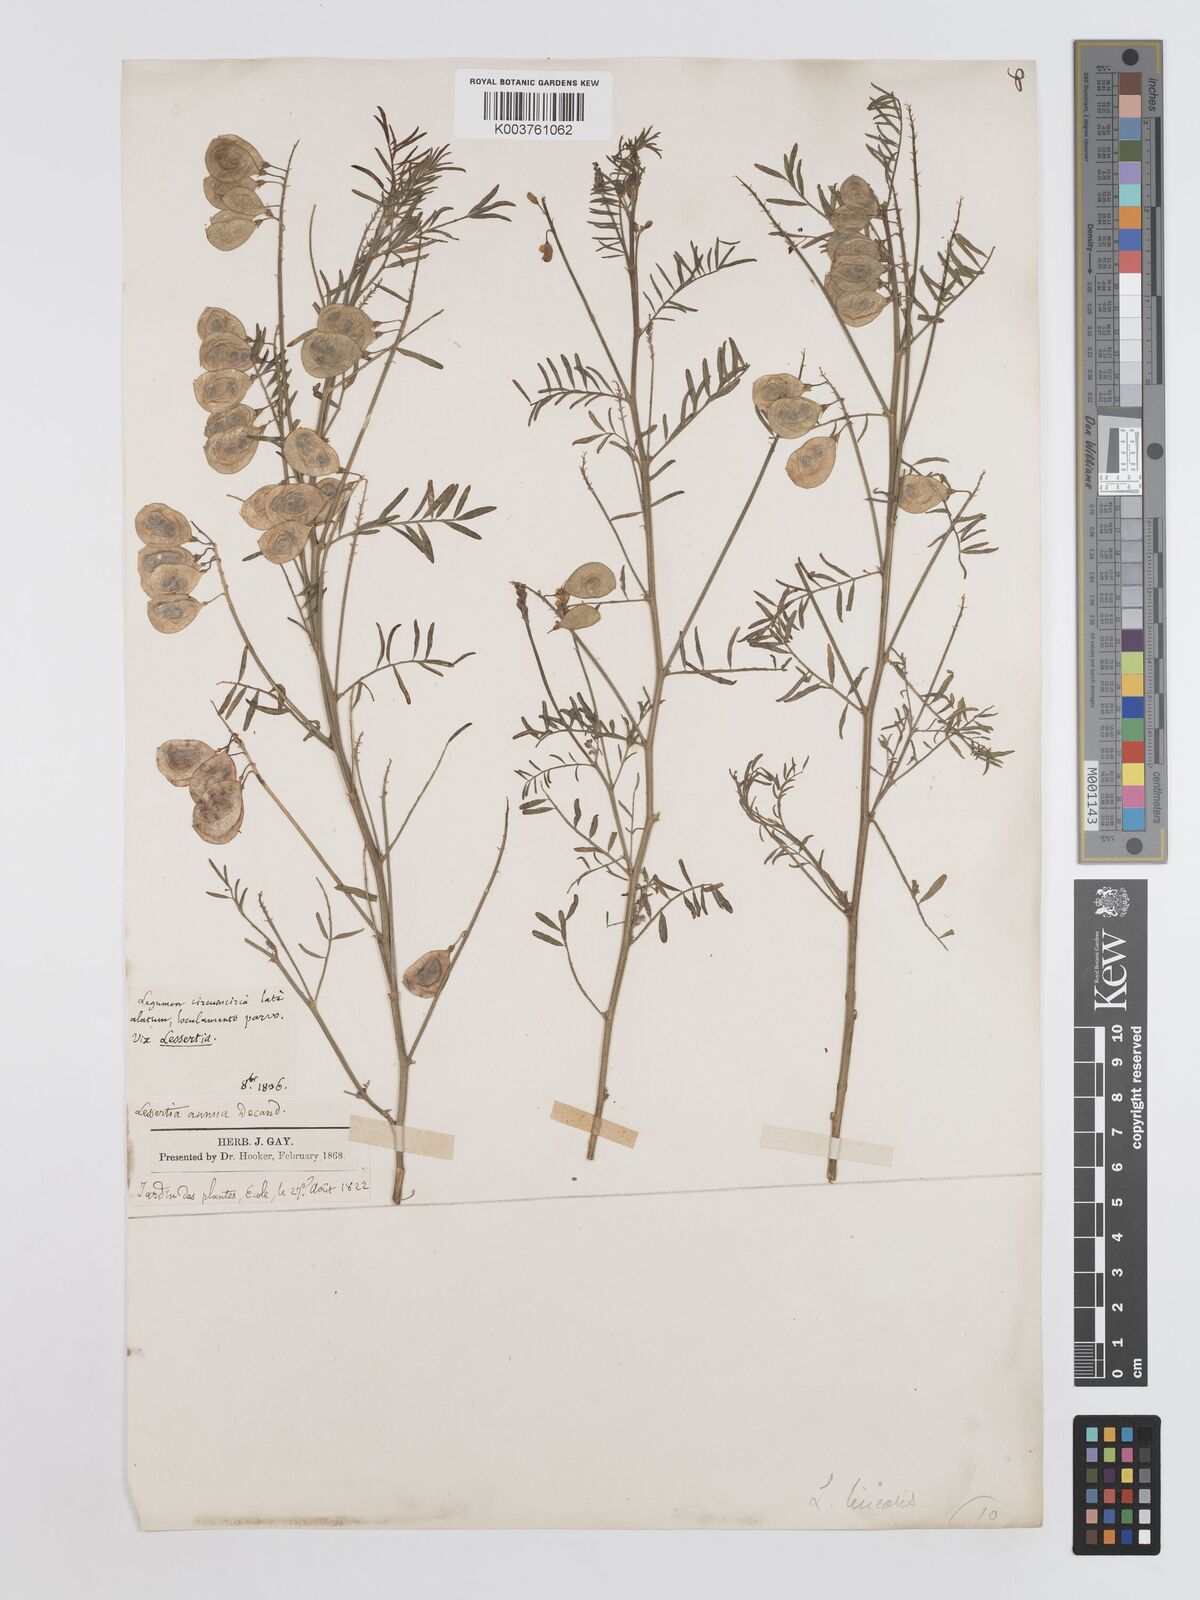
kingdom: Plantae
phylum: Tracheophyta
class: Magnoliopsida
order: Fabales
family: Fabaceae
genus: Lessertia
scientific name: Lessertia herbacea
